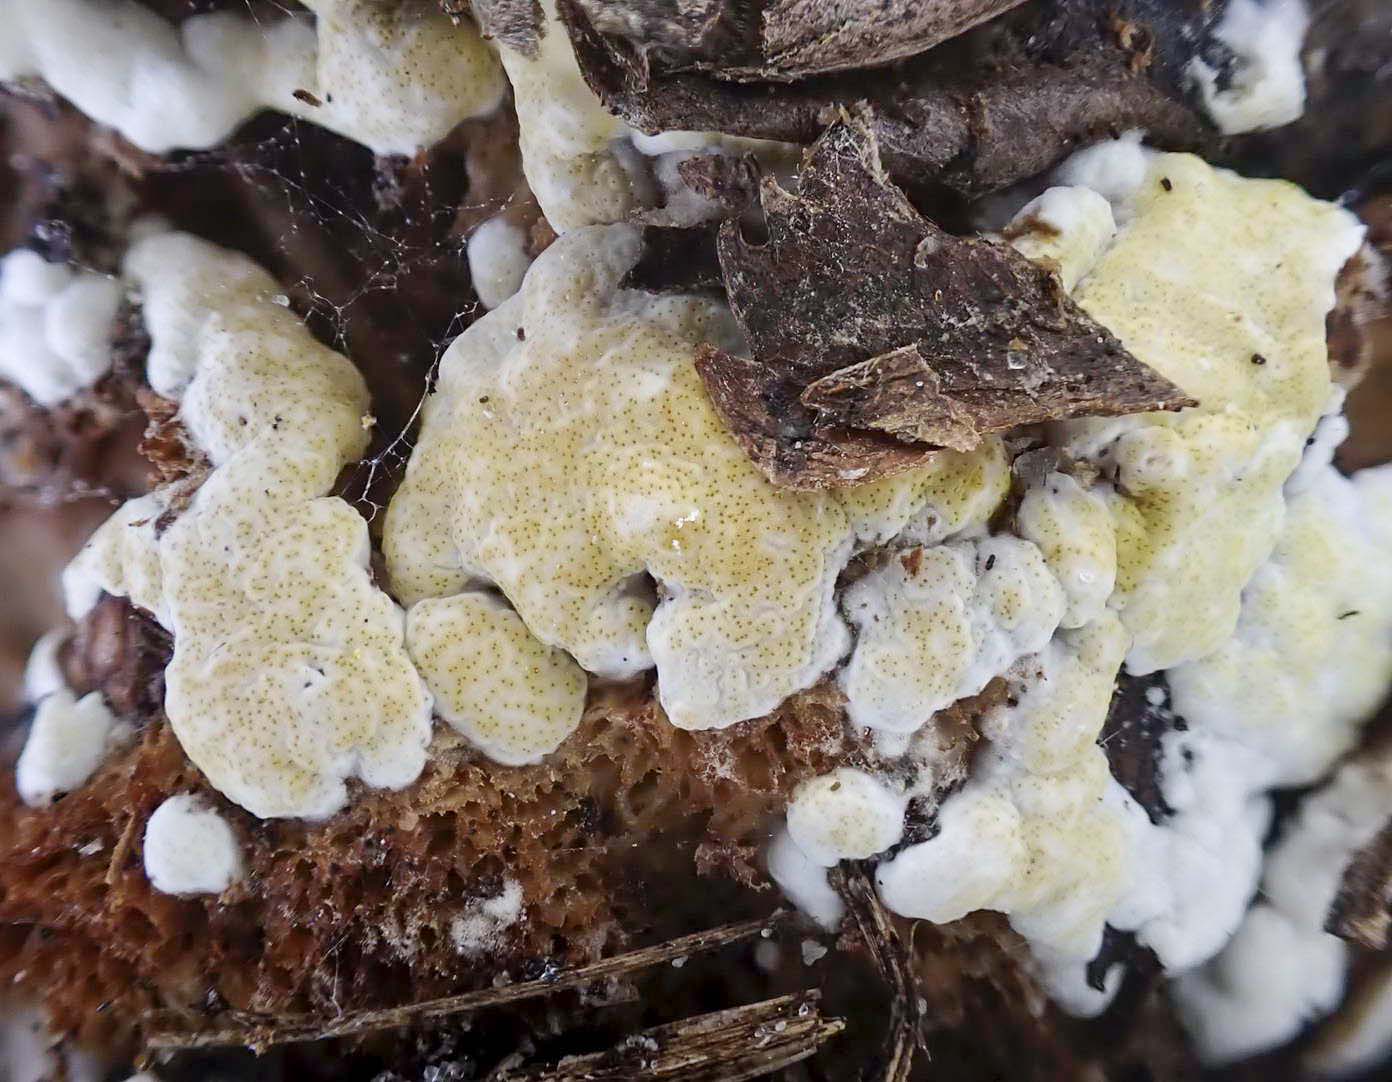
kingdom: Fungi
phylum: Ascomycota
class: Sordariomycetes
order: Hypocreales
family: Hypocreaceae
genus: Trichoderma
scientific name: Trichoderma pulvinatum
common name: snyltende kødkerne
